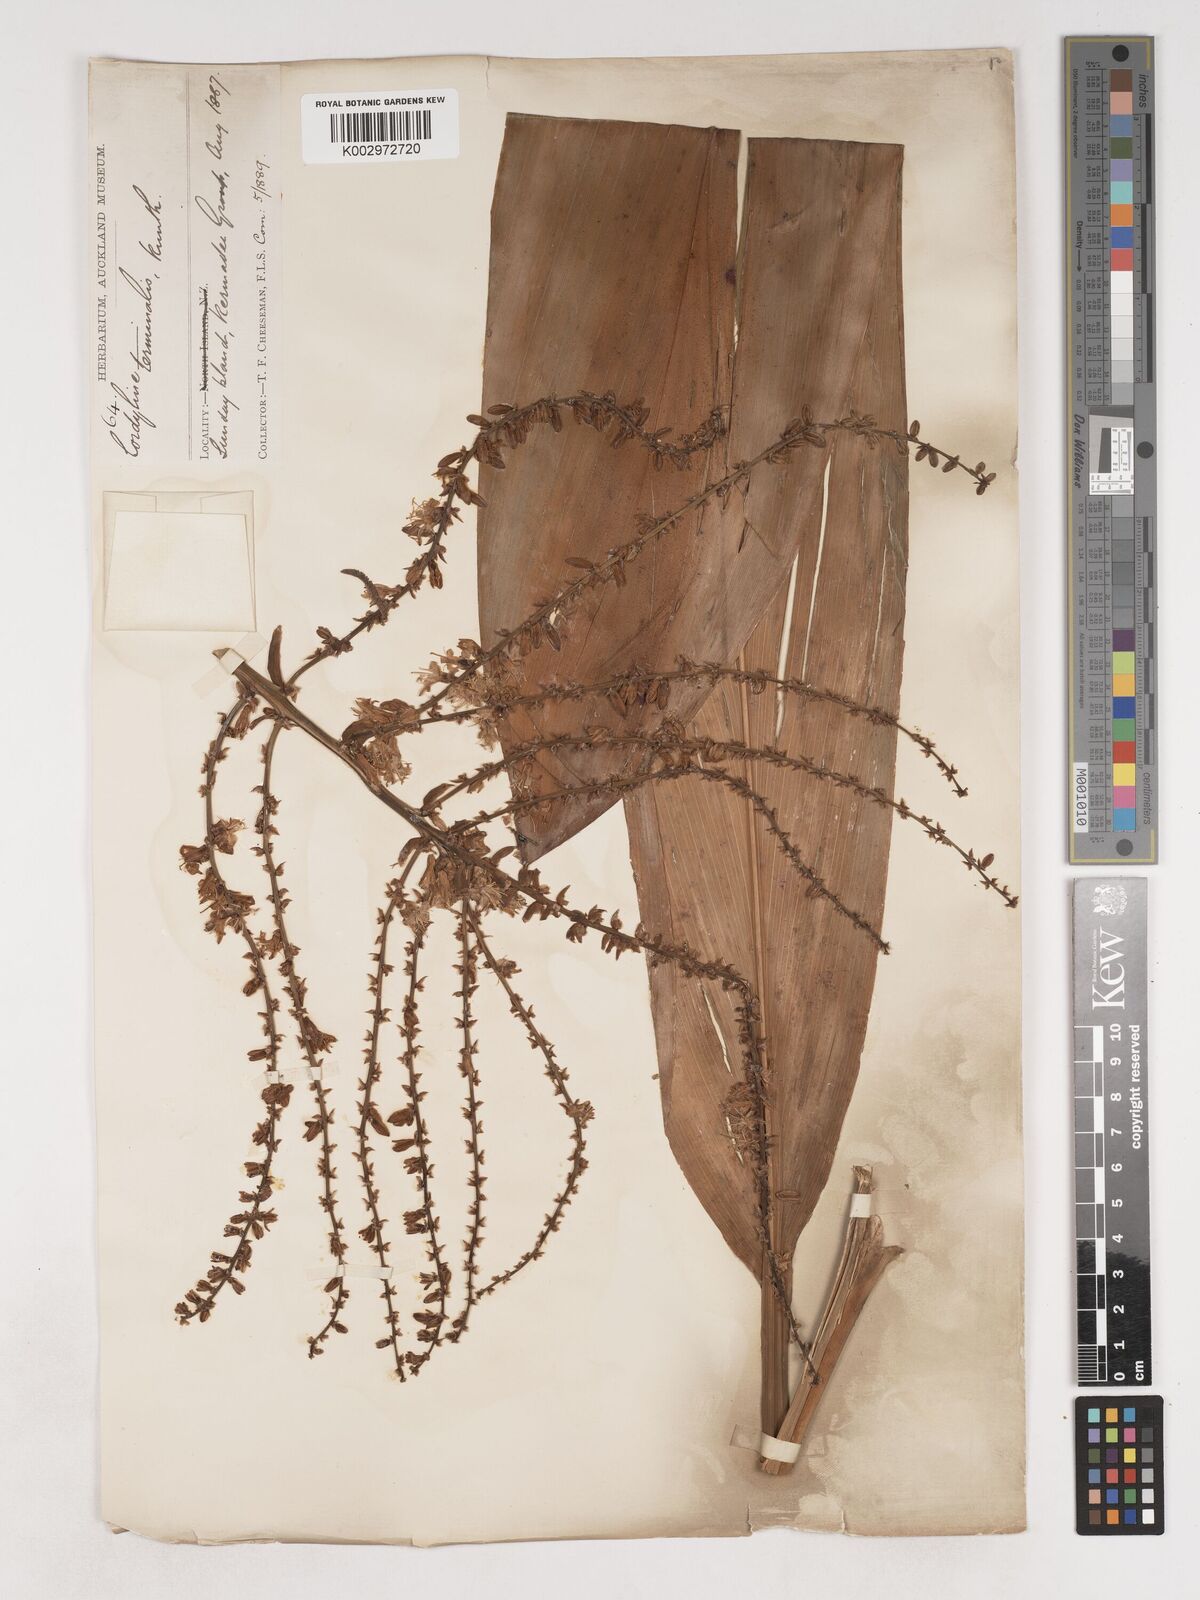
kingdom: Plantae
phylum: Tracheophyta
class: Liliopsida
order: Asparagales
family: Asparagaceae
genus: Cordyline
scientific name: Cordyline fruticosa
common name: Good-luck-plant
